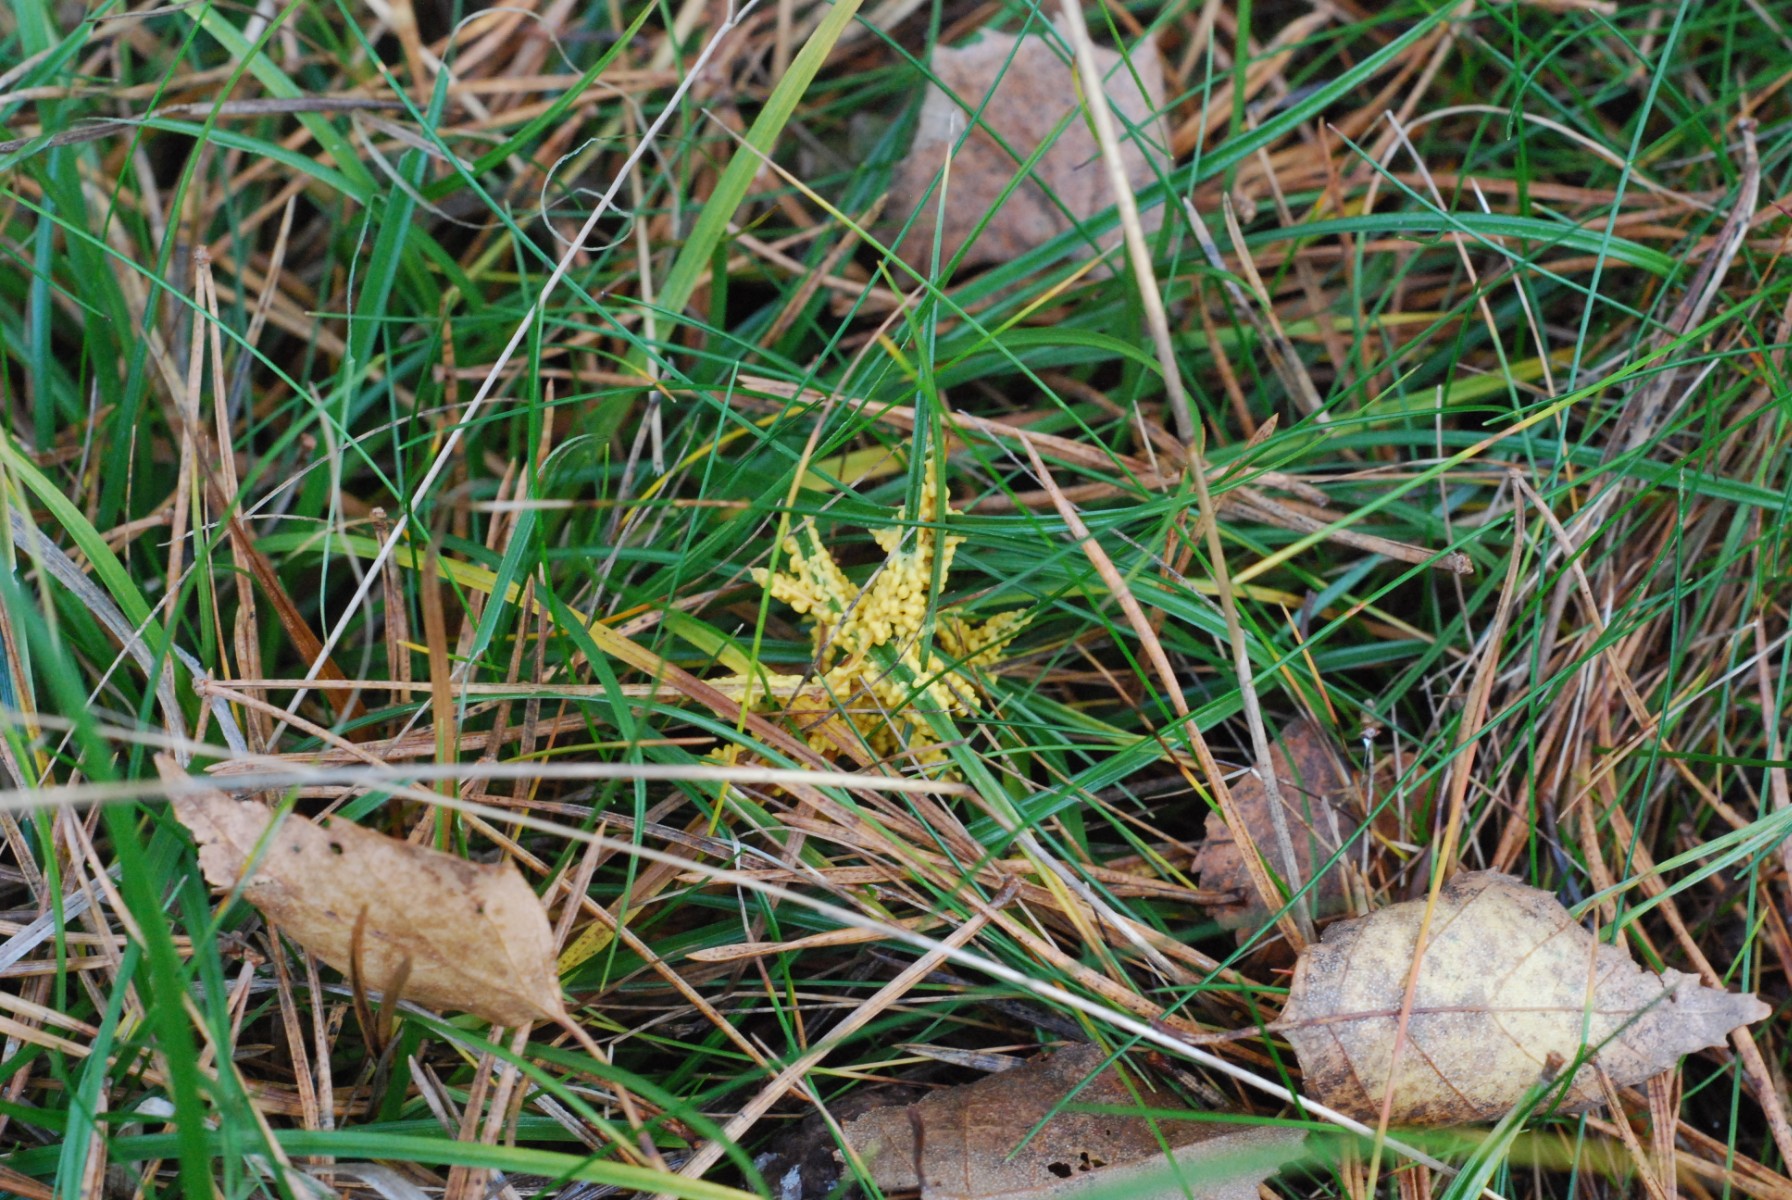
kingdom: Protozoa
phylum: Mycetozoa
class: Myxomycetes
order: Physarales
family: Physaraceae
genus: Leocarpus
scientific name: Leocarpus fragilis
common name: poleret glatfrø
